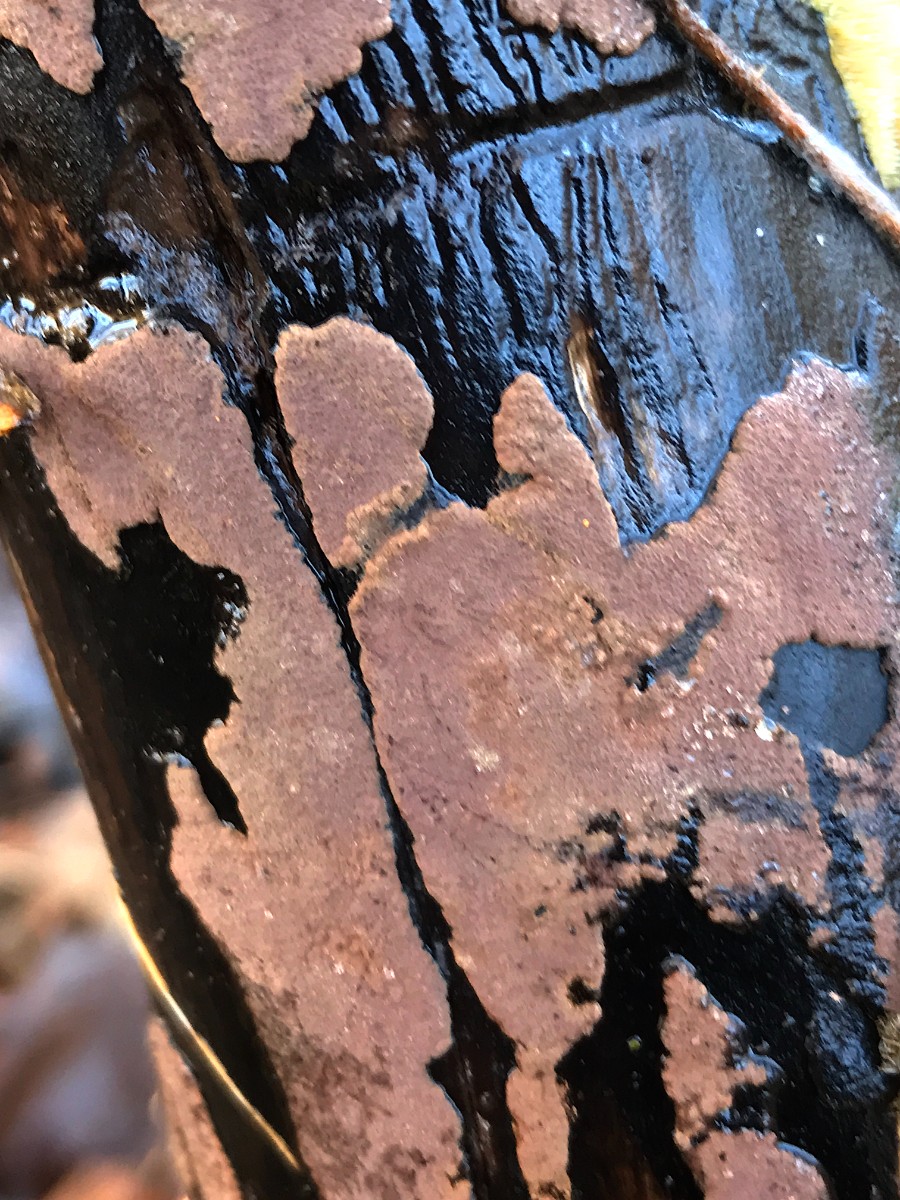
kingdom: Fungi
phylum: Ascomycota
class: Sordariomycetes
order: Xylariales
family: Hypoxylaceae
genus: Hypoxylon
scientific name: Hypoxylon
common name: kulbær
